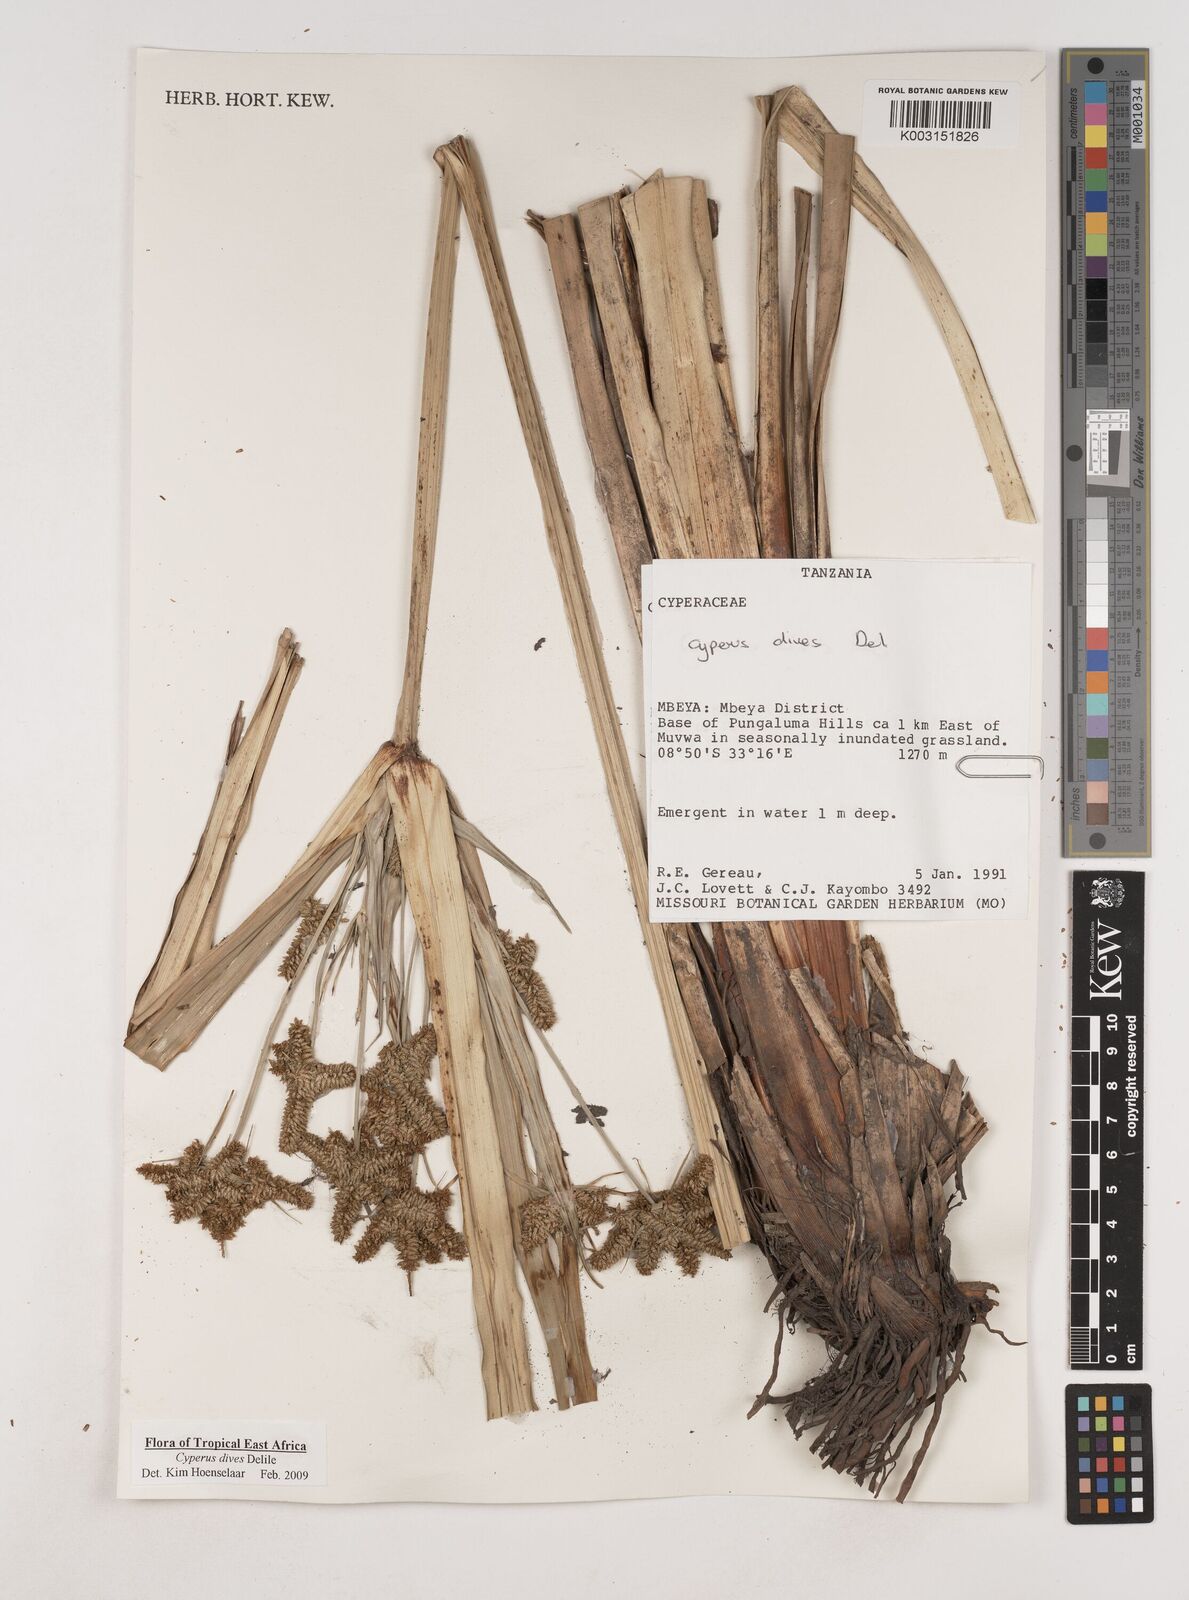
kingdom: Plantae
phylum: Tracheophyta
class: Liliopsida
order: Poales
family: Cyperaceae
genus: Cyperus
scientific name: Cyperus
